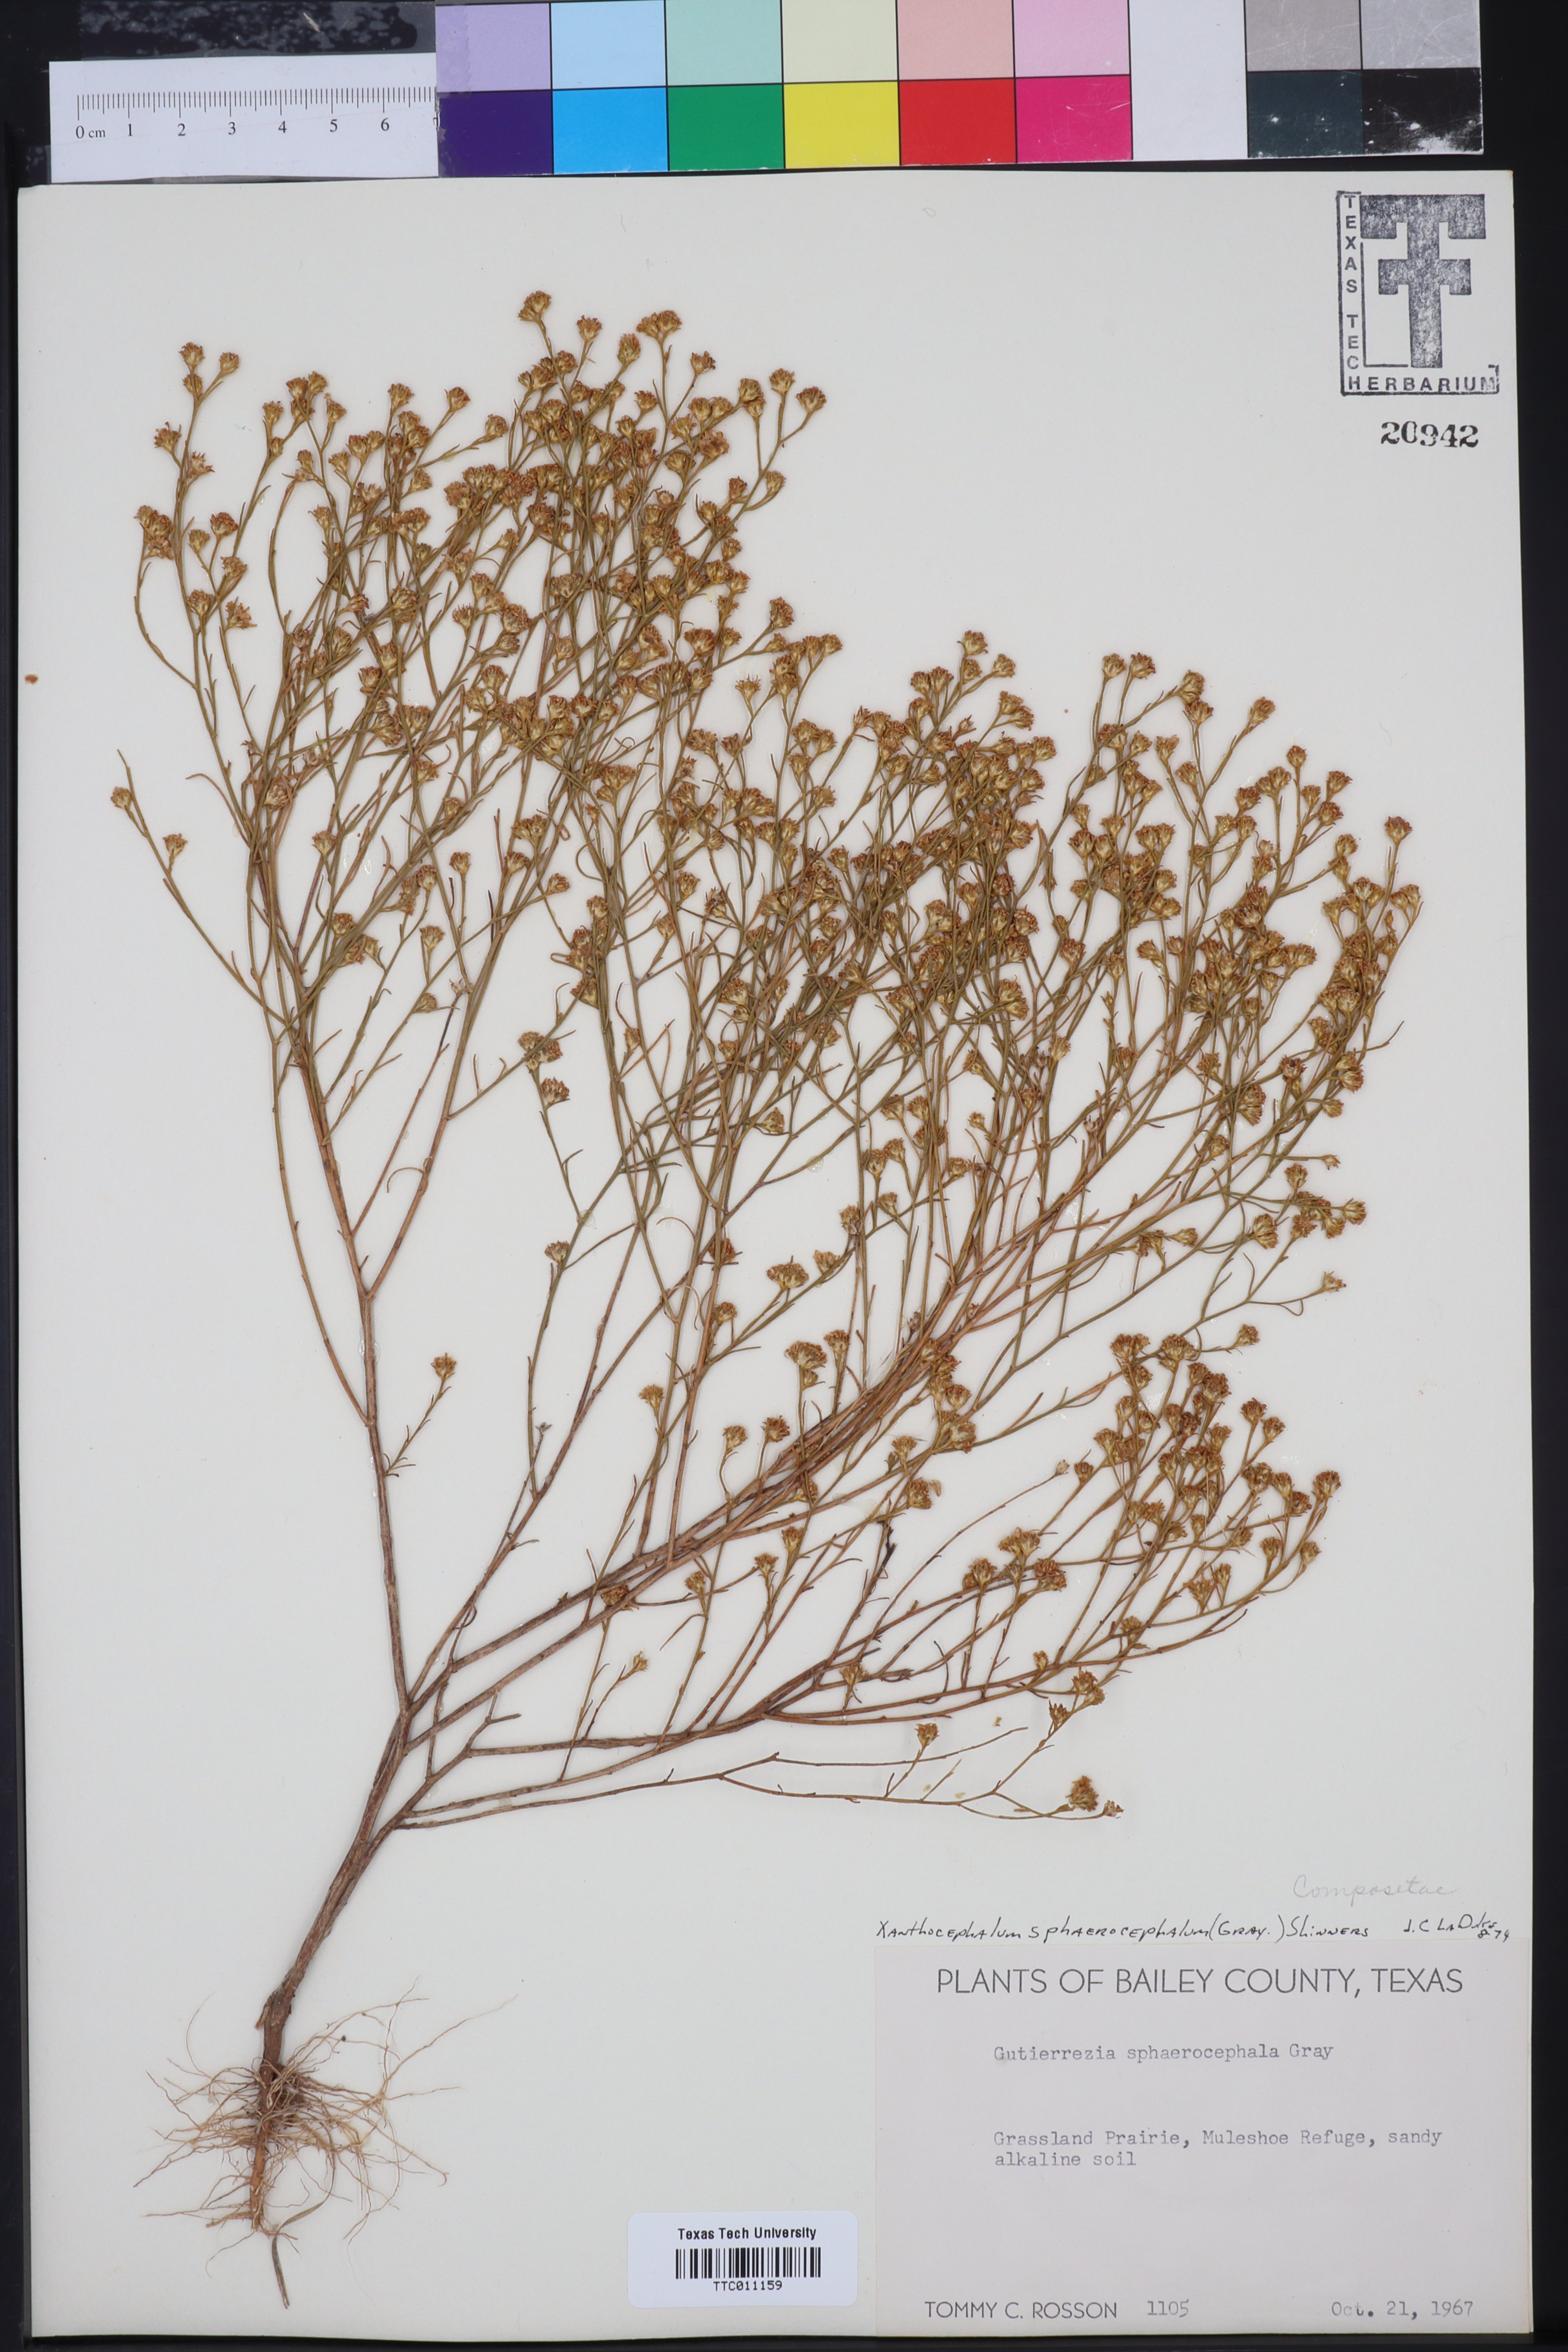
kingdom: Plantae
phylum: Tracheophyta
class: Magnoliopsida
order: Asterales
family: Asteraceae
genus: Gutierrezia
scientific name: Gutierrezia sphaerocephala
